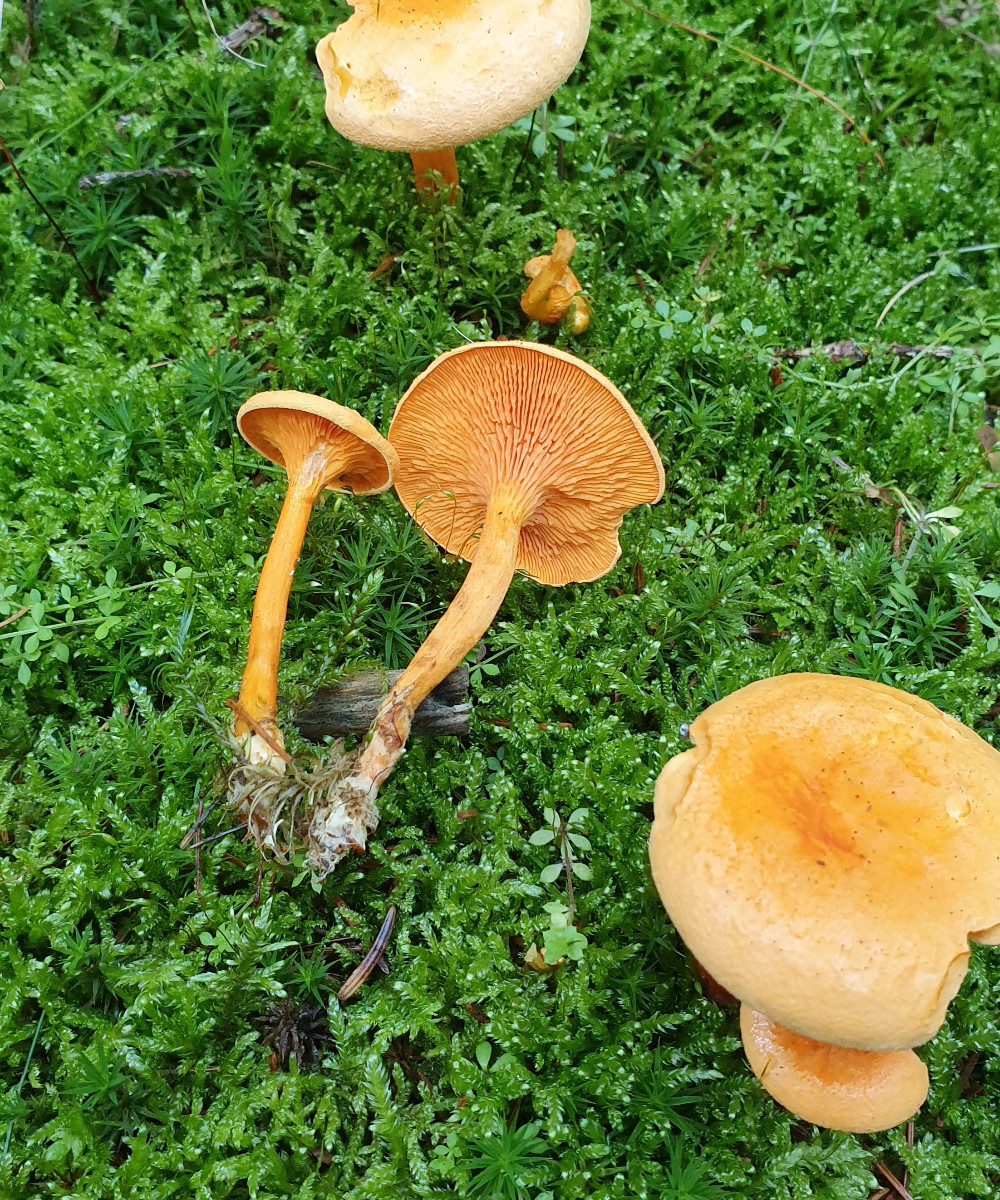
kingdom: Fungi
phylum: Basidiomycota
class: Agaricomycetes
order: Boletales
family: Hygrophoropsidaceae
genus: Hygrophoropsis
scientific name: Hygrophoropsis aurantiaca
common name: almindelig orangekantarel
